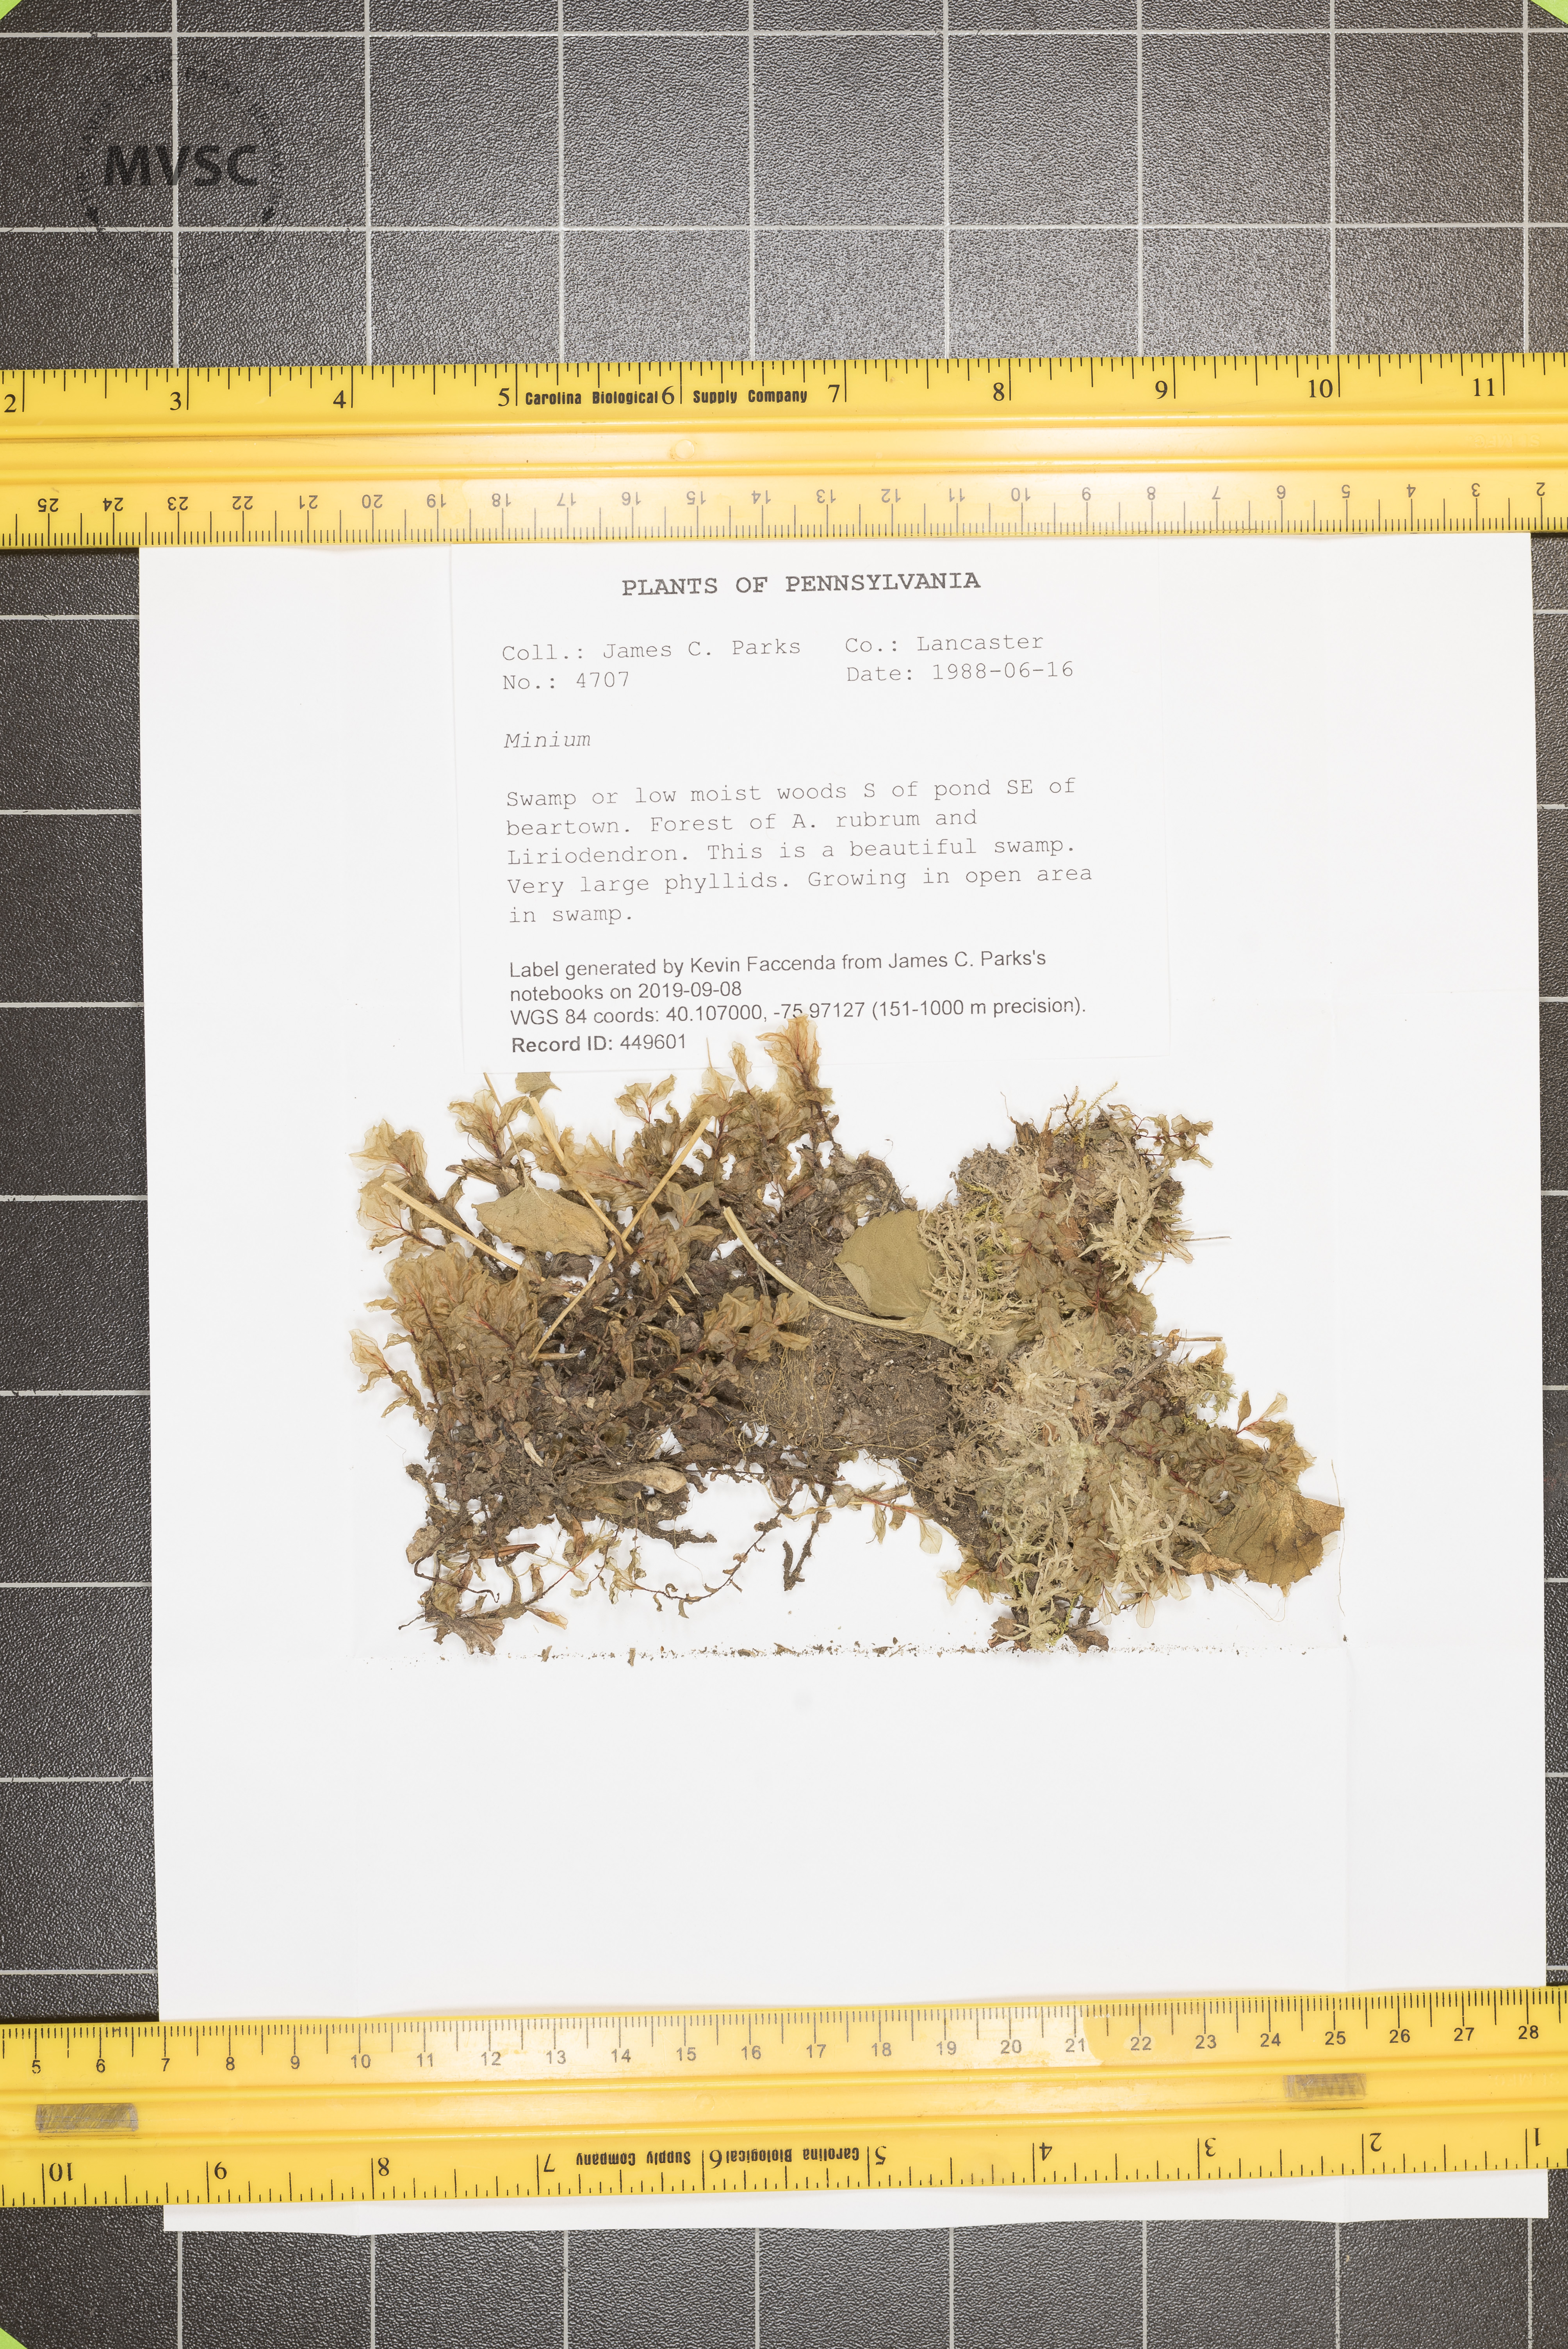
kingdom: Plantae
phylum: Rhodophyta
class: Florideophyceae
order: Rhodymeniales
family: Fryeellaceae
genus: Minium
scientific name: Minium
